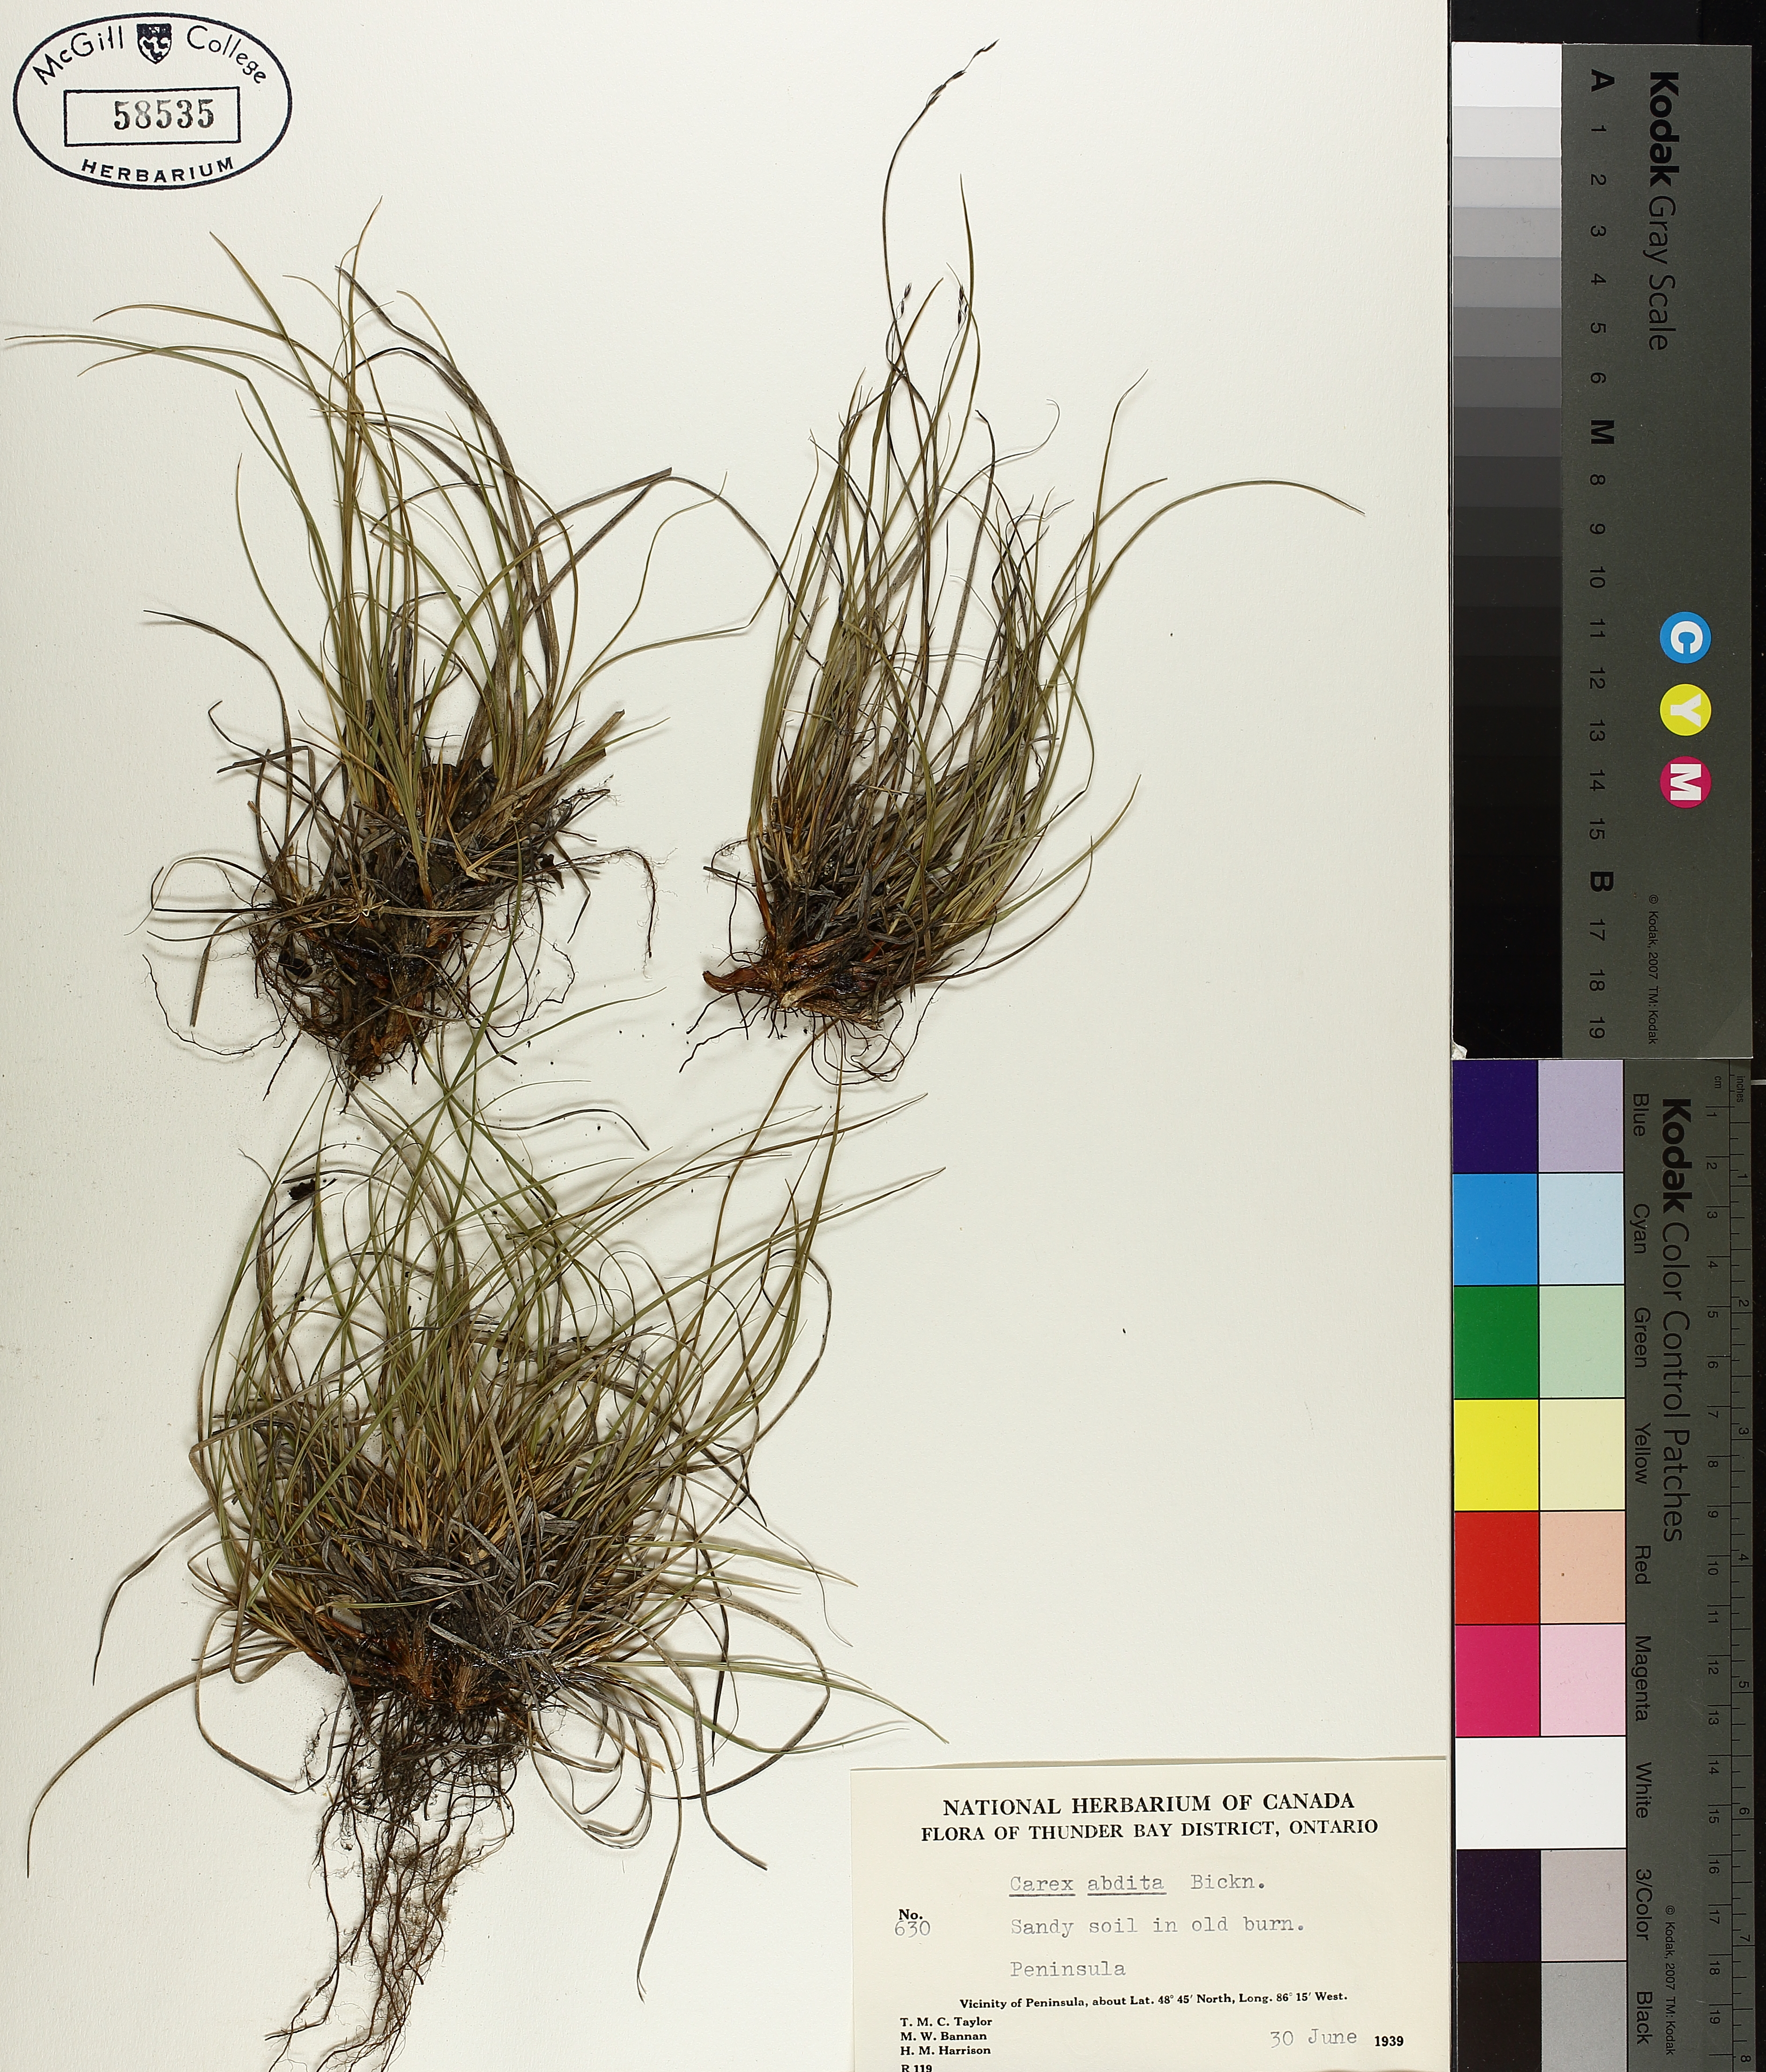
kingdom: Plantae
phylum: Tracheophyta
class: Liliopsida
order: Poales
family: Cyperaceae
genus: Carex
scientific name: Carex umbellata
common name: Early oak sedge
